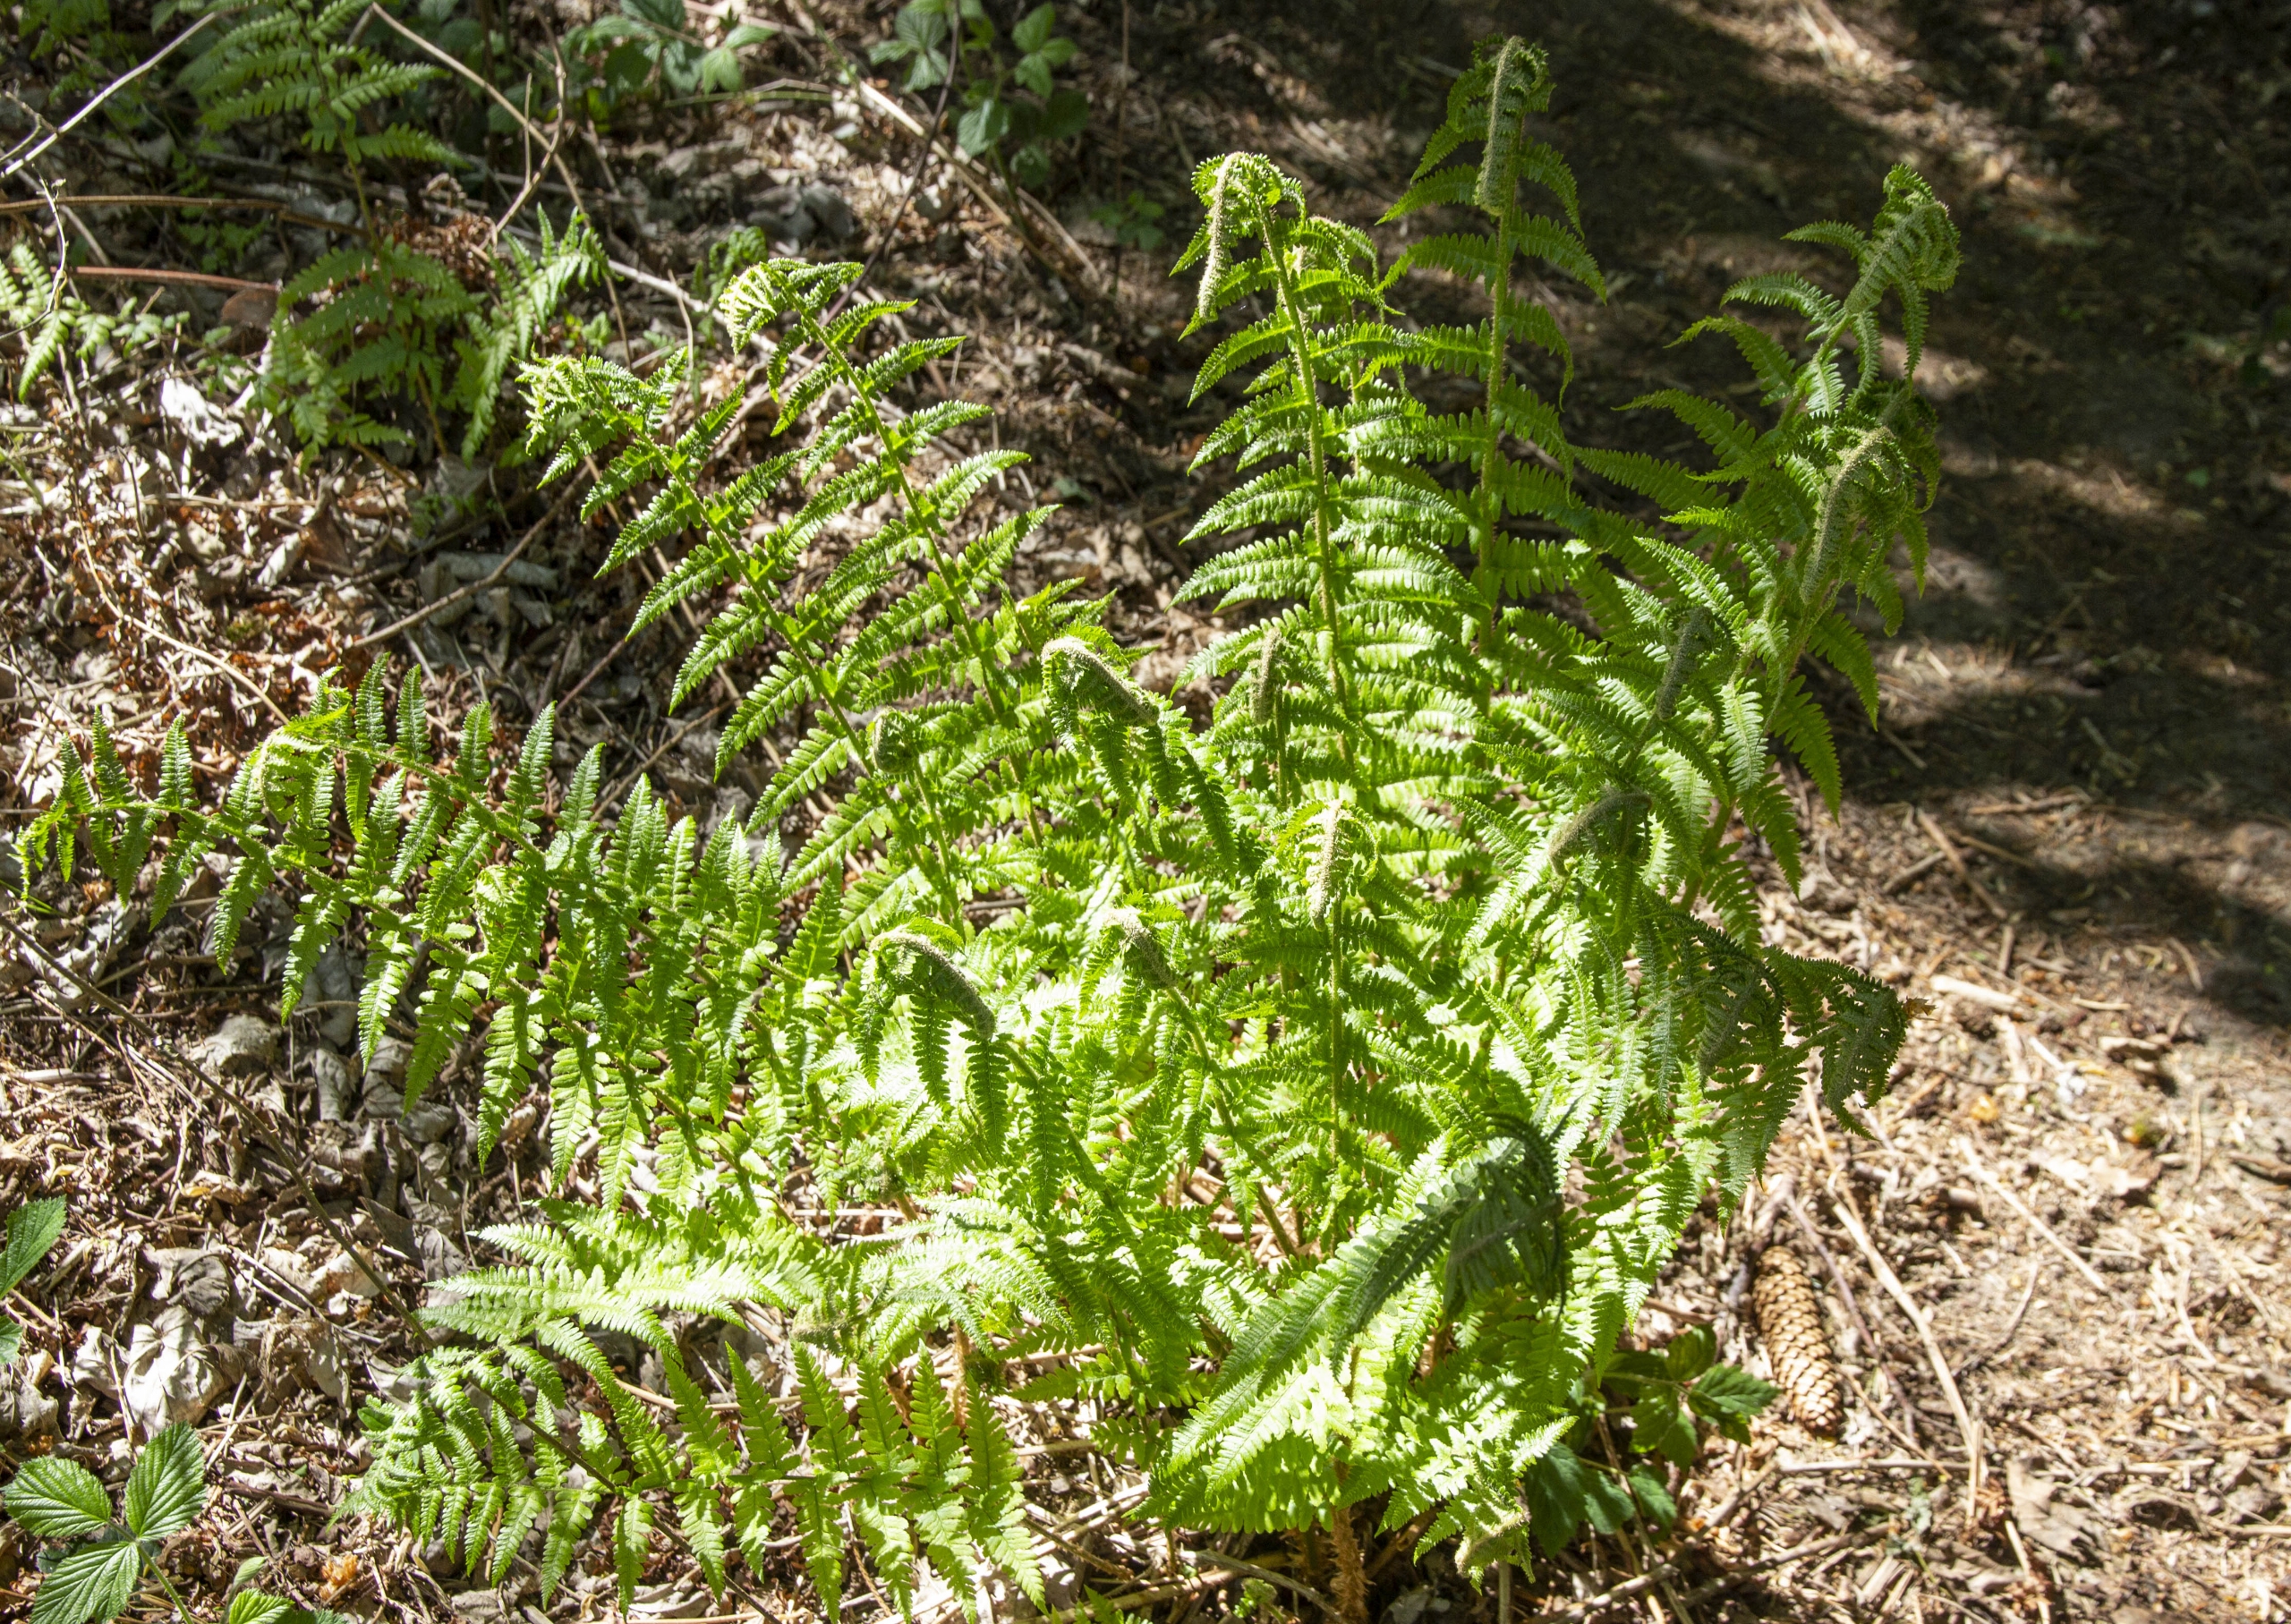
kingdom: Plantae
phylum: Tracheophyta
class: Polypodiopsida
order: Polypodiales
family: Dryopteridaceae
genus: Dryopteris
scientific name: Dryopteris filix-mas
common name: Almindelig mangeløv
